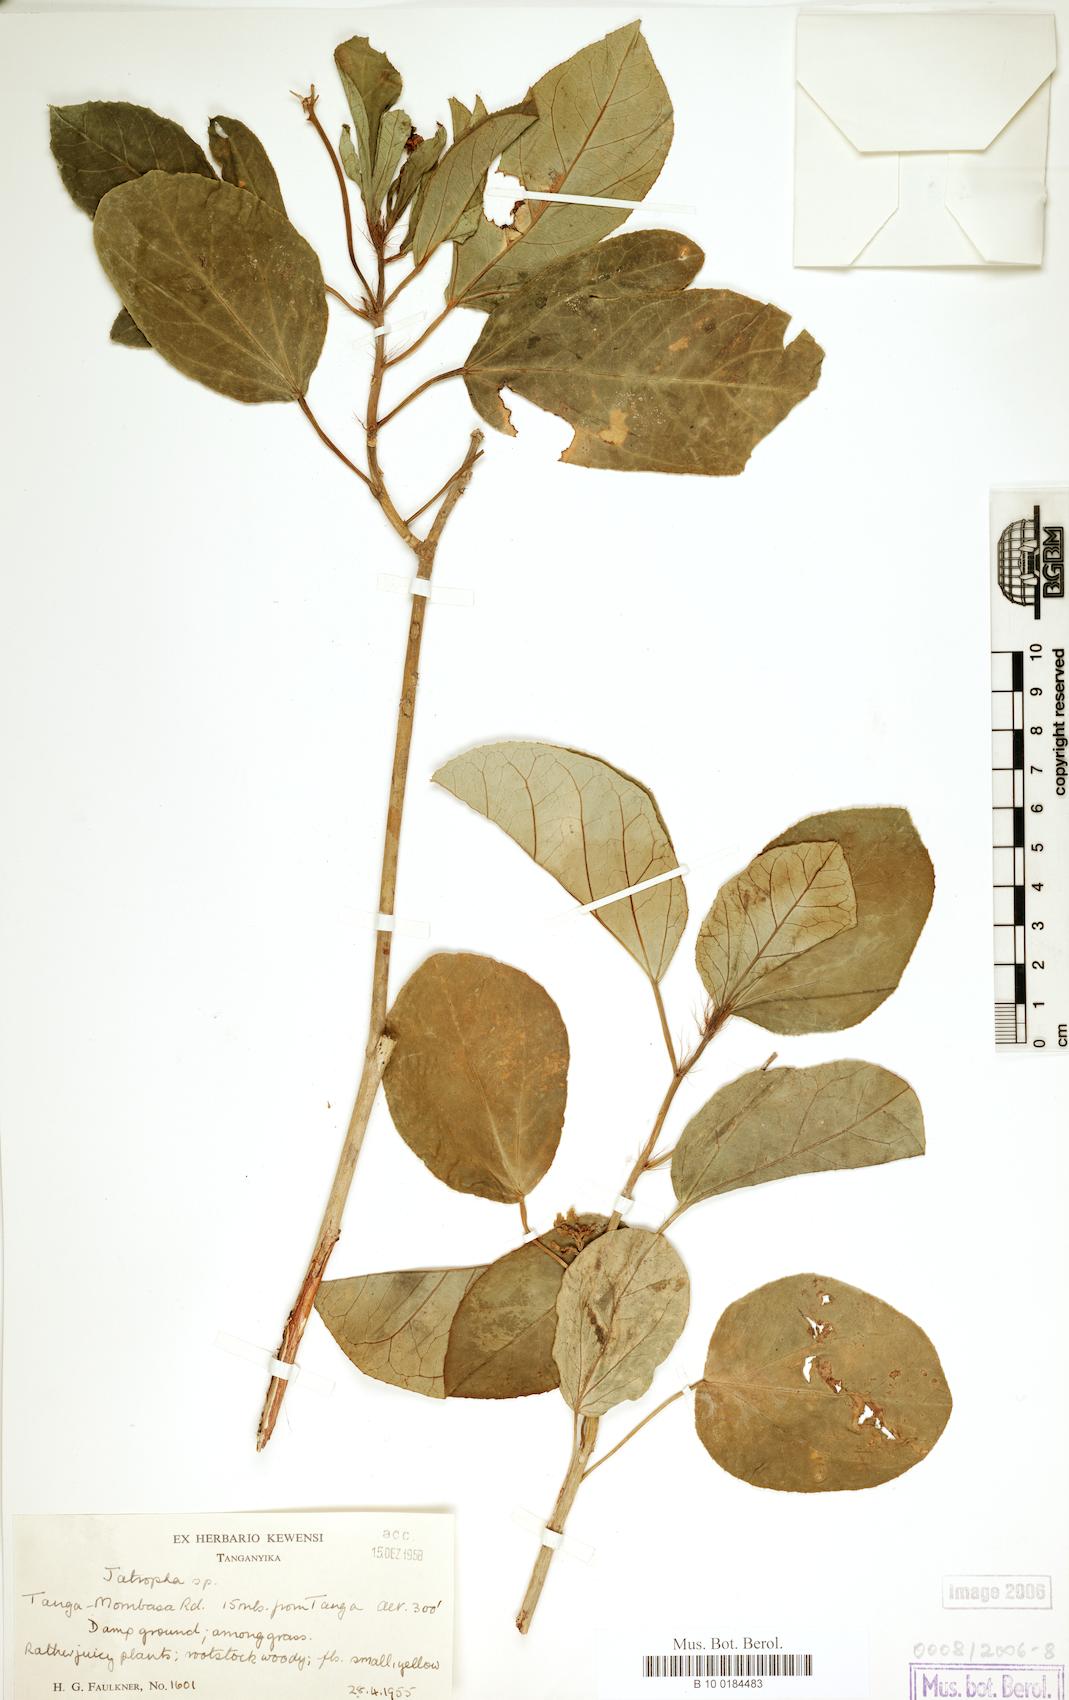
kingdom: Plantae
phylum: Tracheophyta
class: Magnoliopsida
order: Malpighiales
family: Euphorbiaceae
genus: Jatropha
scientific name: Jatropha hypogyna
